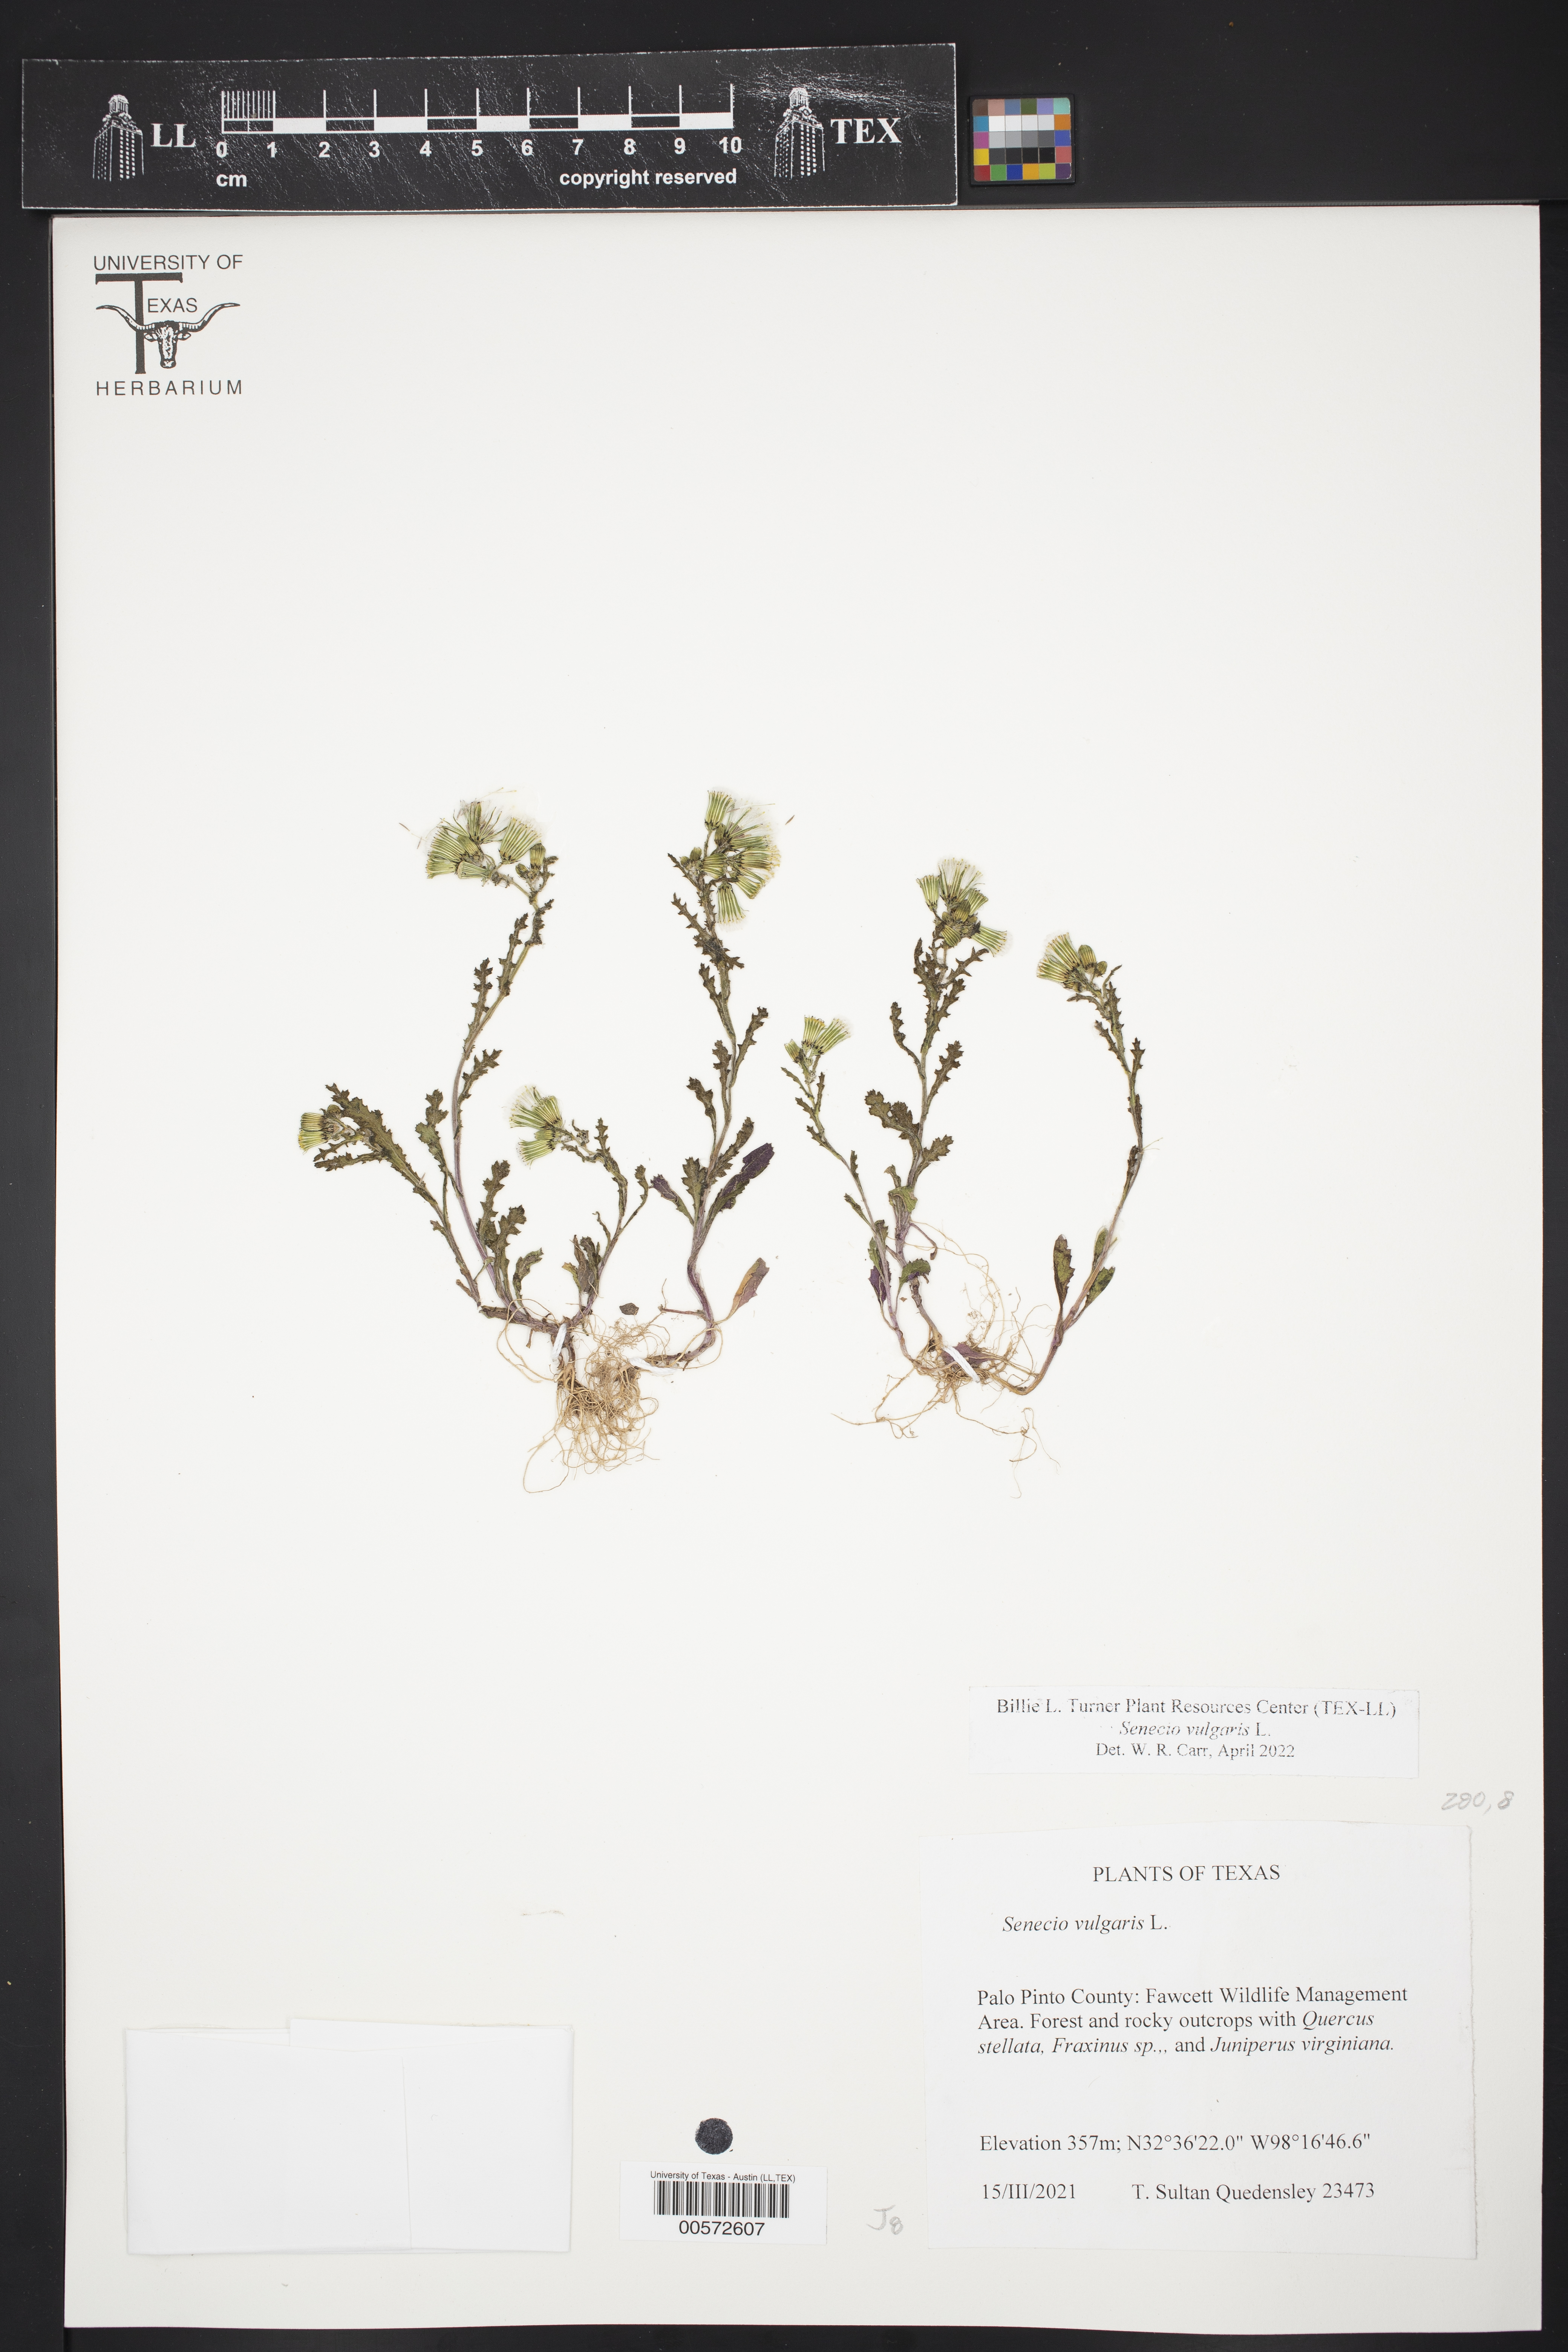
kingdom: Plantae
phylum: Tracheophyta
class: Magnoliopsida
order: Asterales
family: Asteraceae
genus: Senecio
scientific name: Senecio vulgaris
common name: Old-man-in-the-spring
